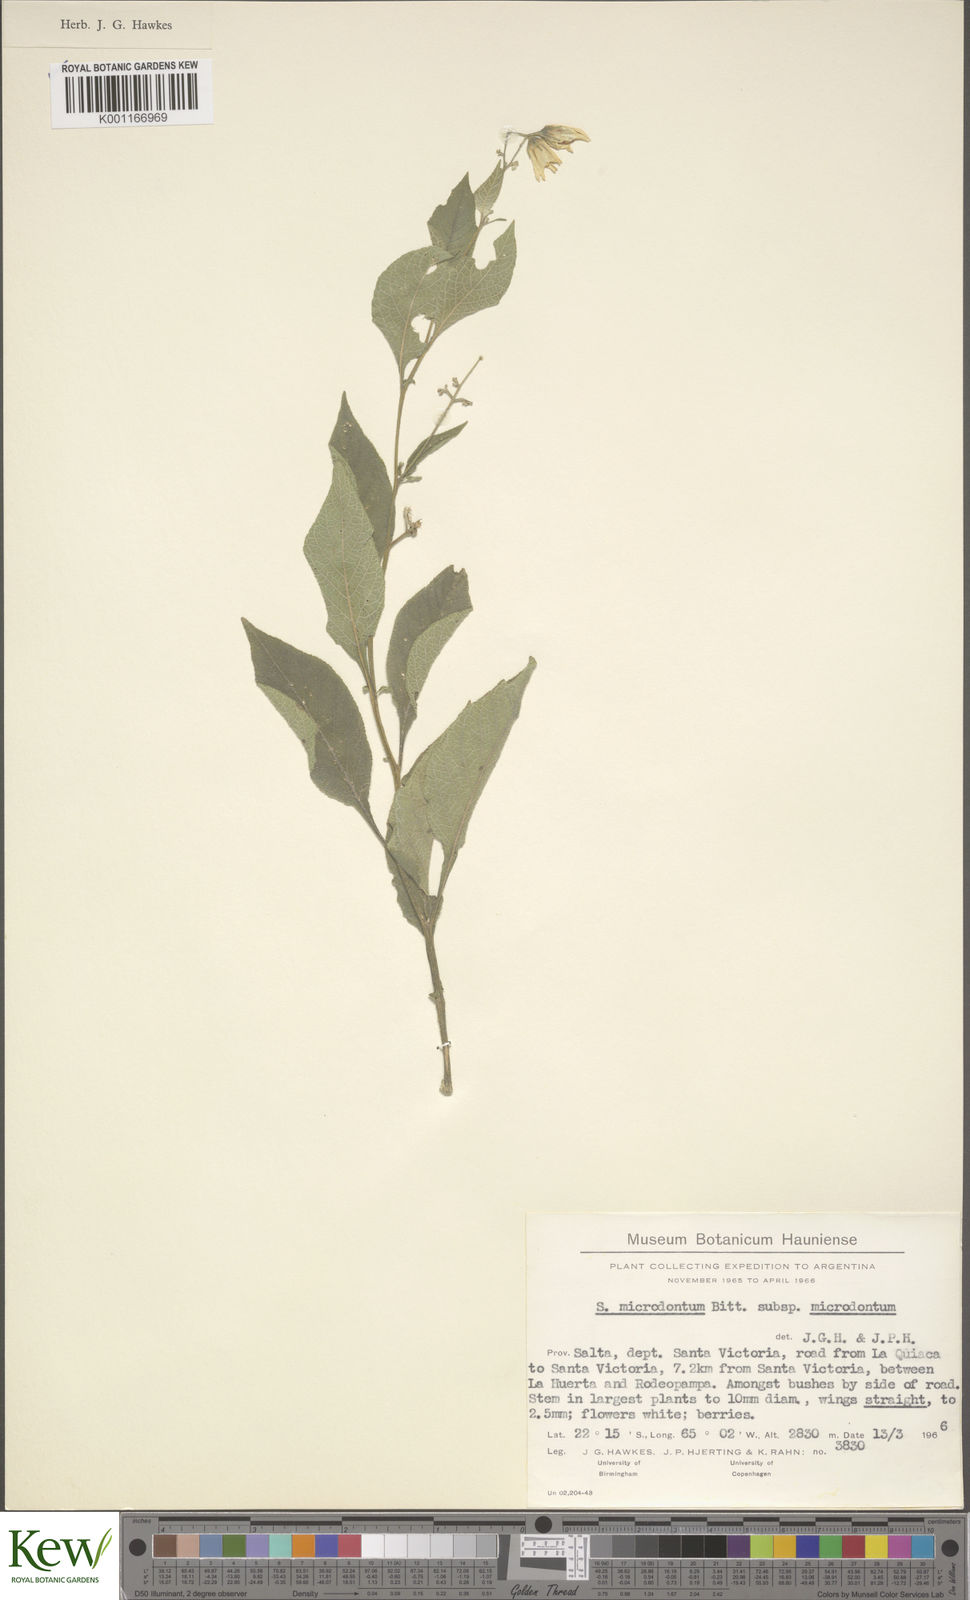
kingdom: Plantae
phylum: Tracheophyta
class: Magnoliopsida
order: Solanales
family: Solanaceae
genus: Solanum
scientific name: Solanum microdontum
